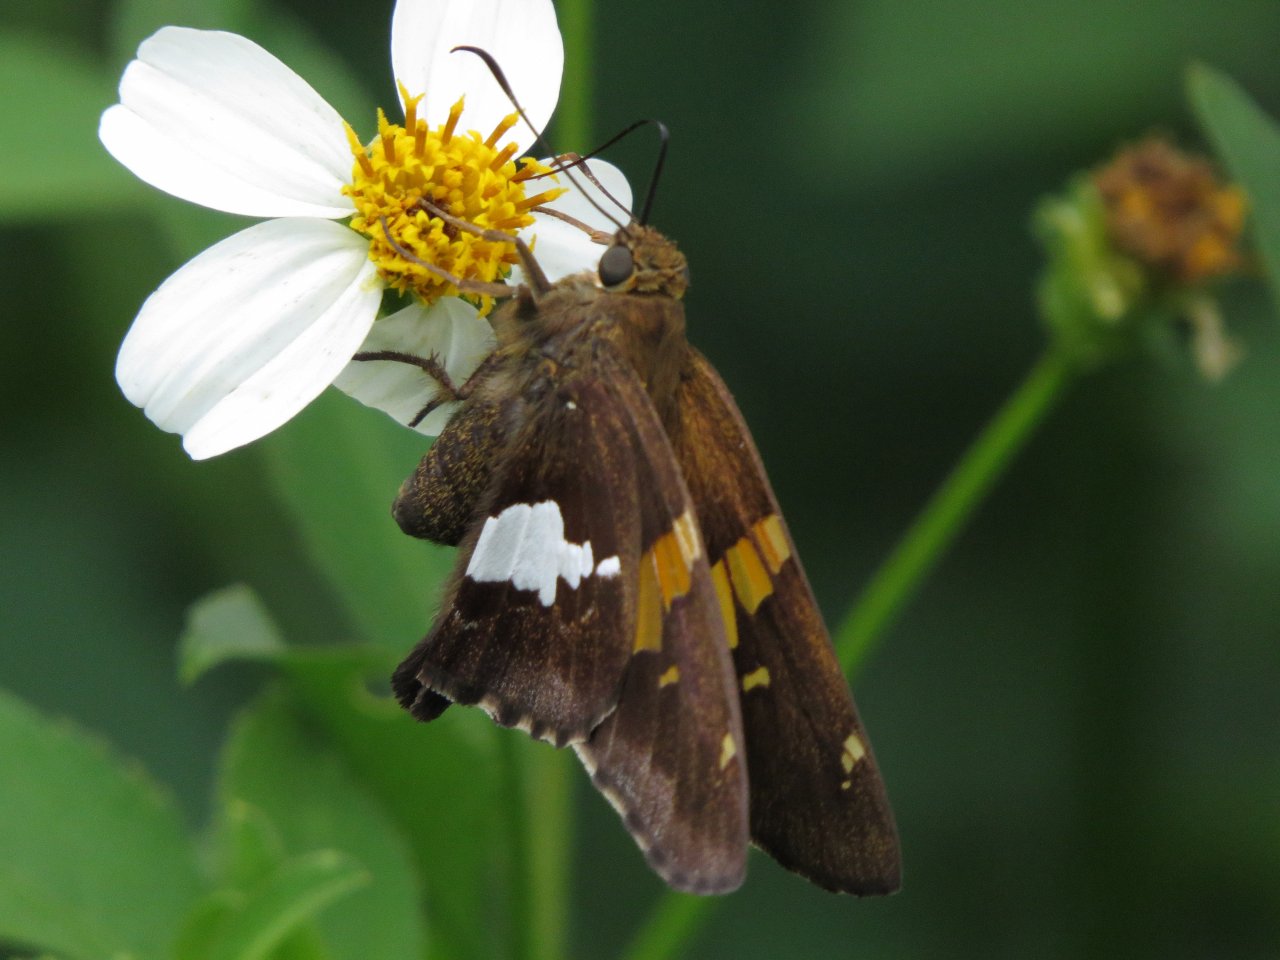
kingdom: Animalia
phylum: Arthropoda
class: Insecta
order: Lepidoptera
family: Hesperiidae
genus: Epargyreus
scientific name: Epargyreus clarus
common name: Silver-spotted Skipper
